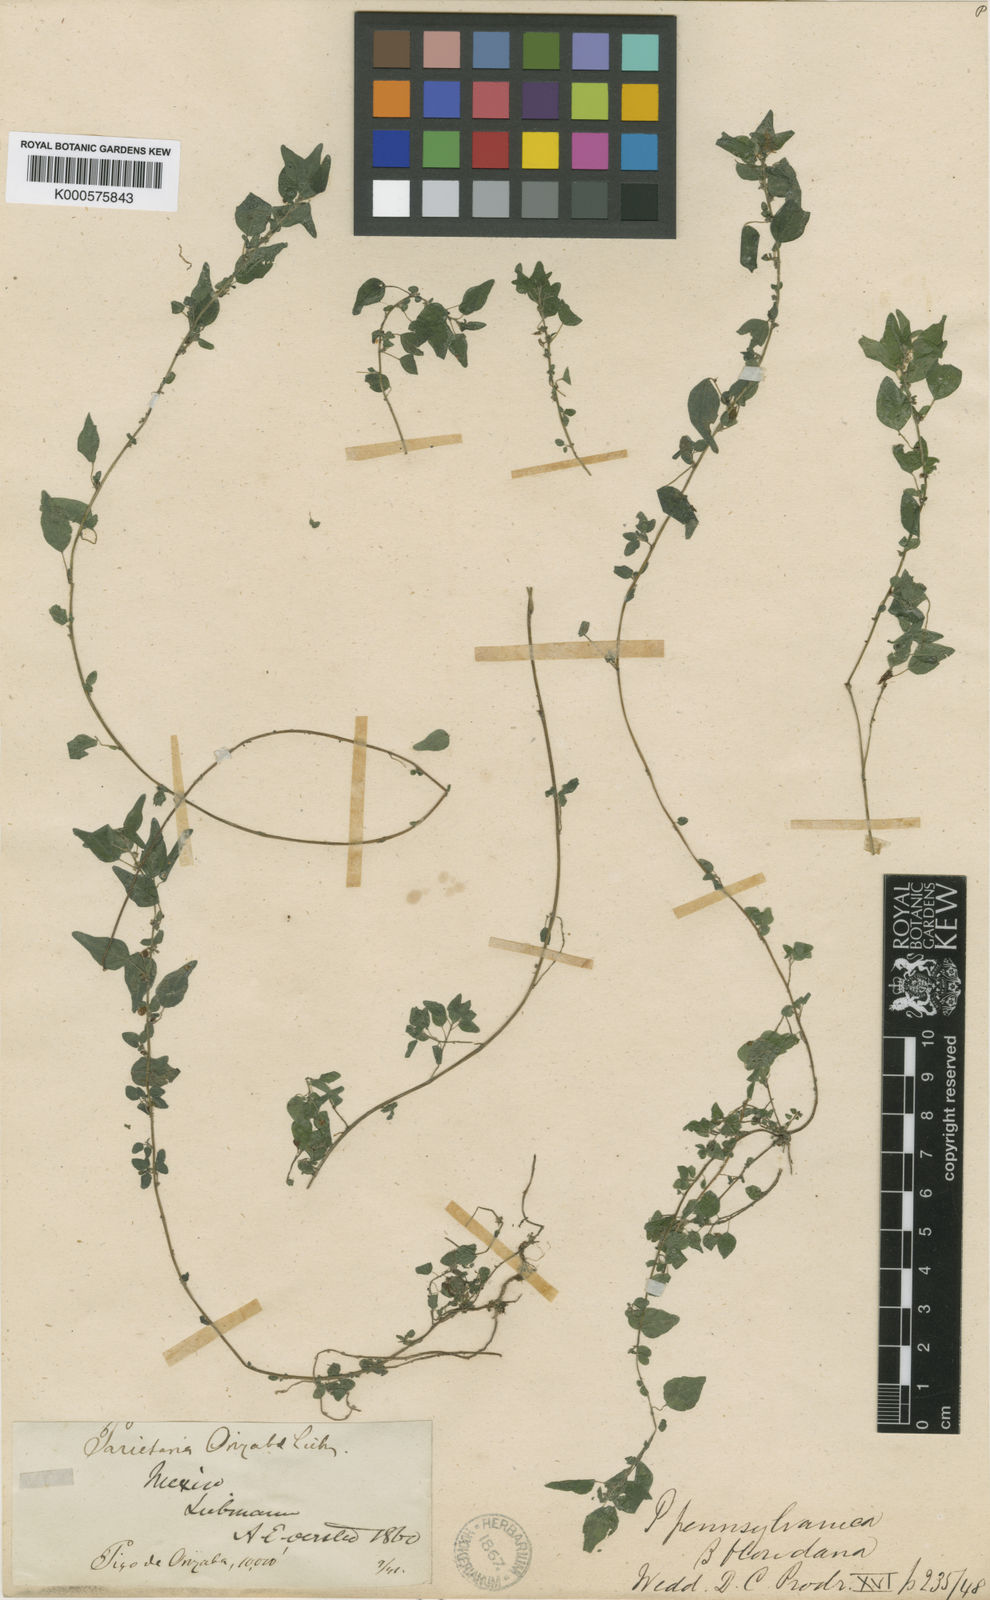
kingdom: Plantae
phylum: Tracheophyta
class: Magnoliopsida
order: Rosales
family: Urticaceae
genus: Parietaria
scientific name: Parietaria pensylvanica
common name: Pennsylvania pellitory
